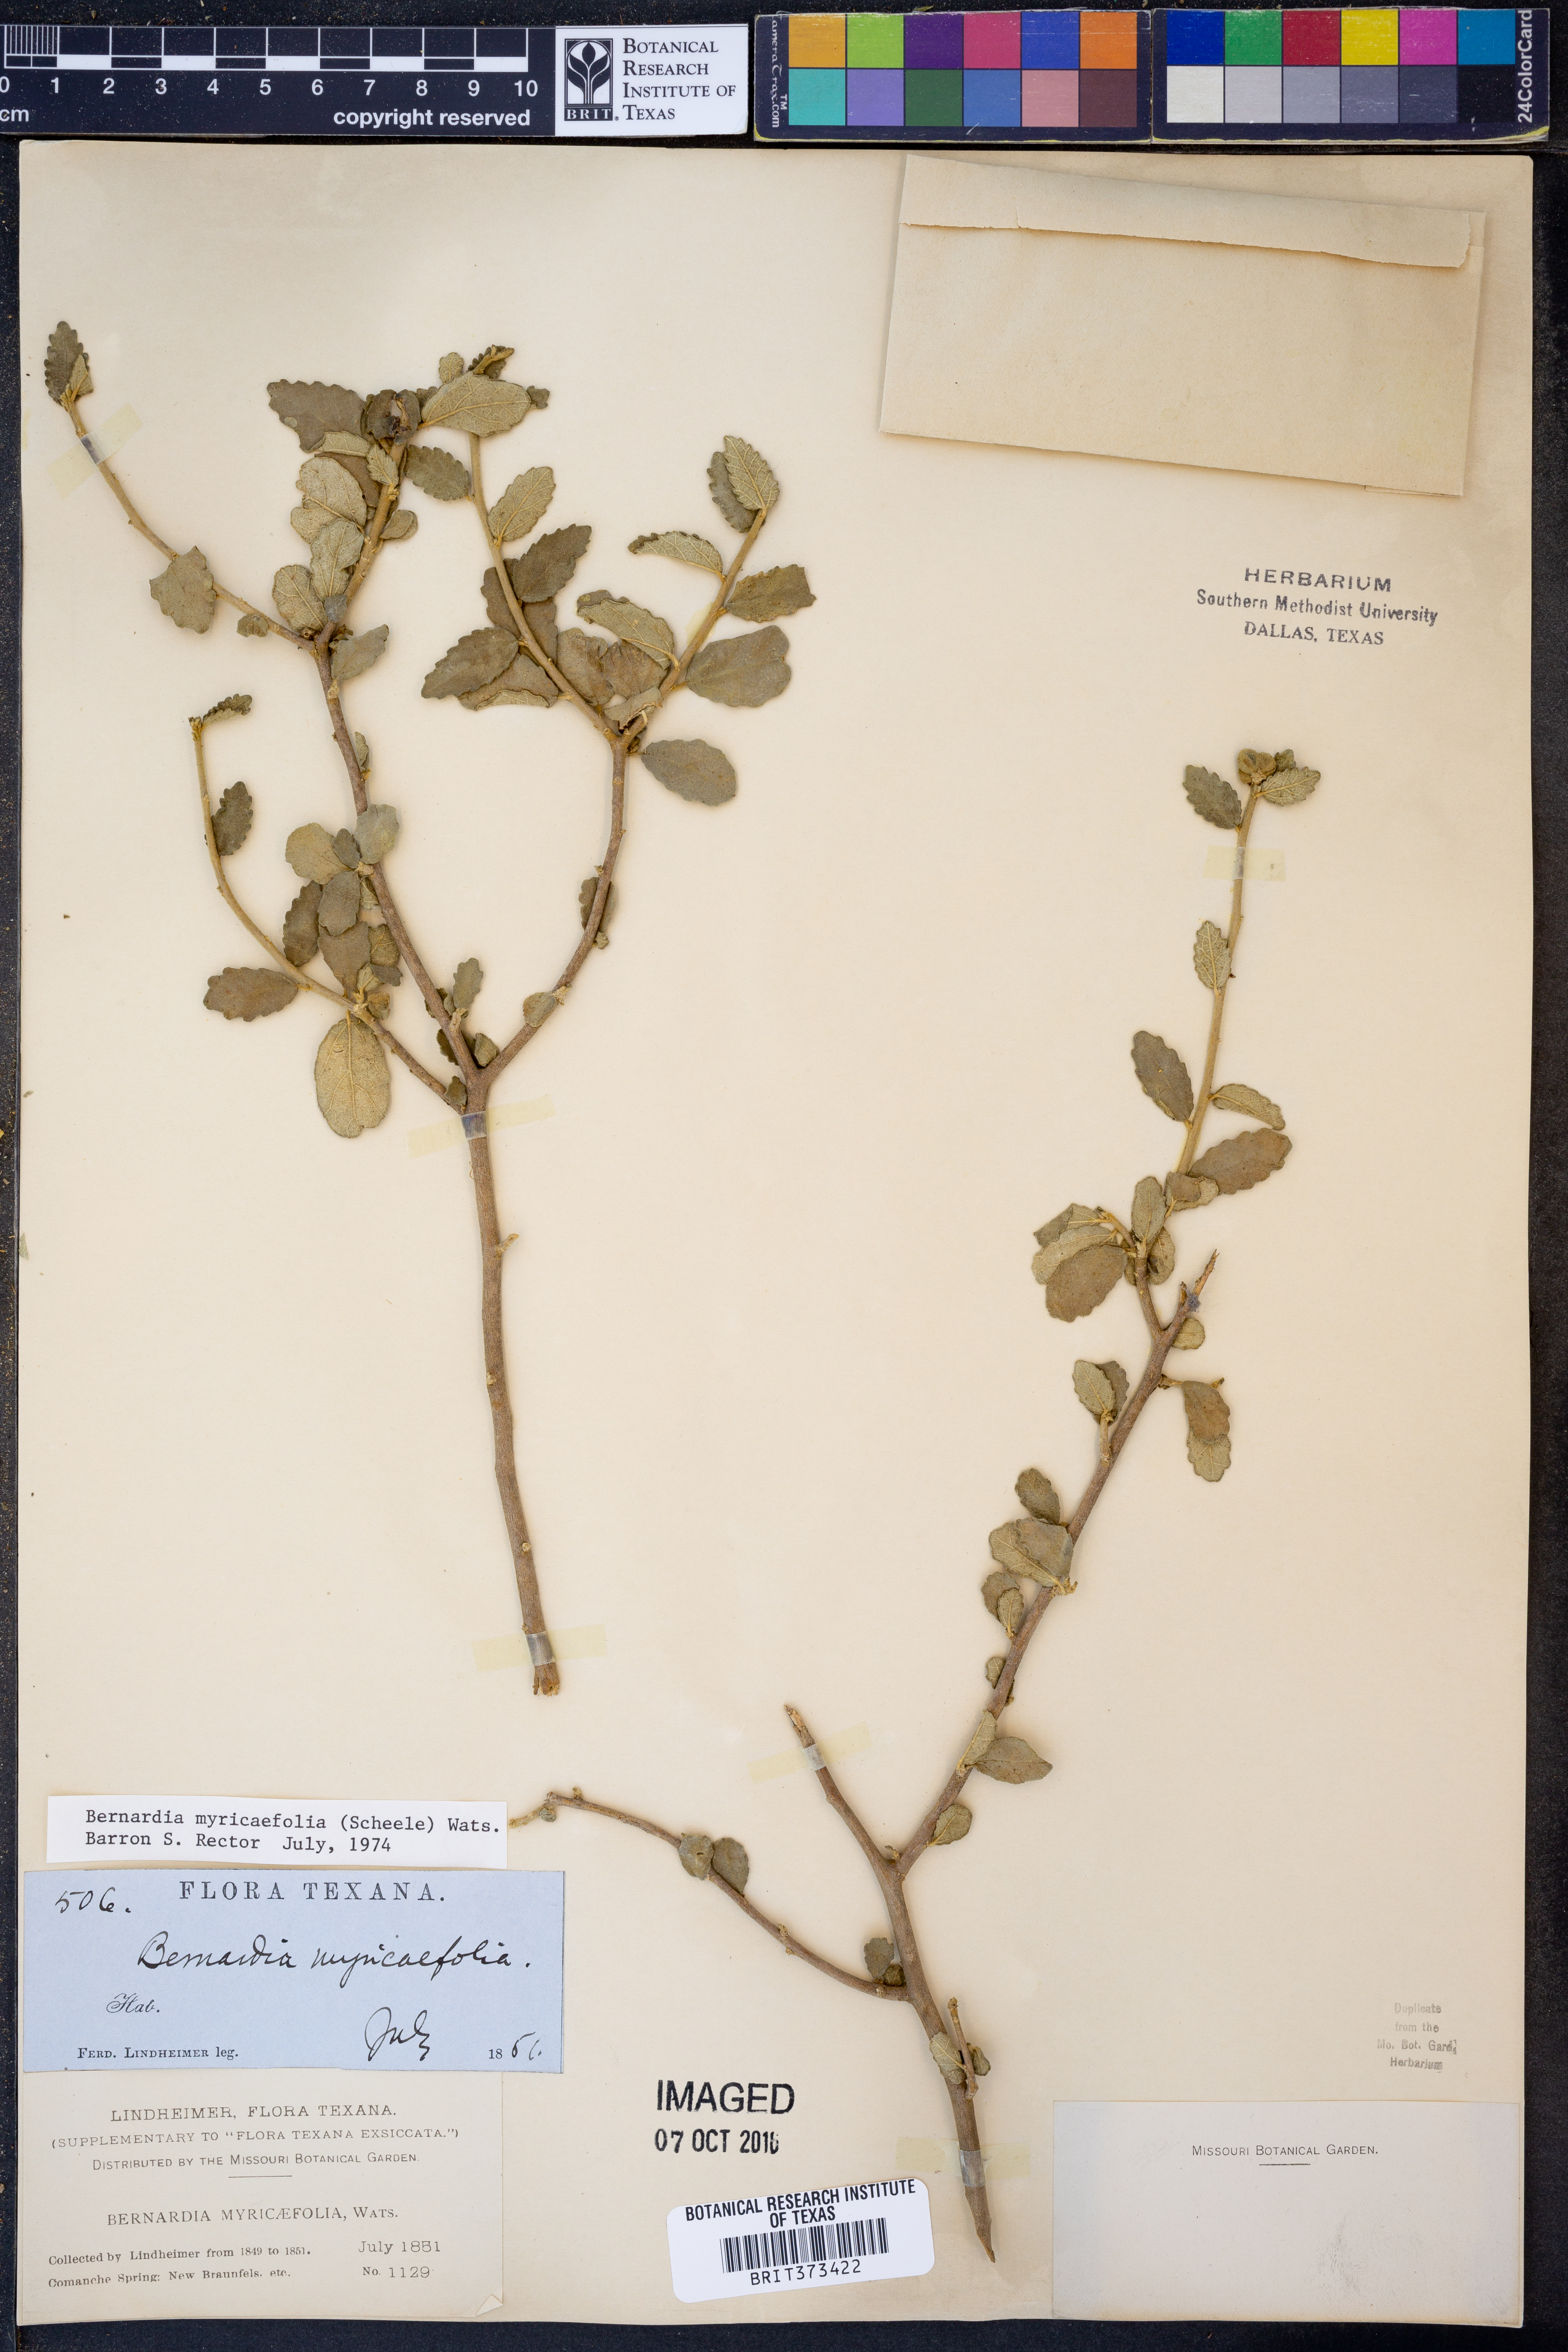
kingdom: Plantae
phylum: Tracheophyta
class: Magnoliopsida
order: Malpighiales
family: Euphorbiaceae
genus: Bernardia
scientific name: Bernardia myricifolia
